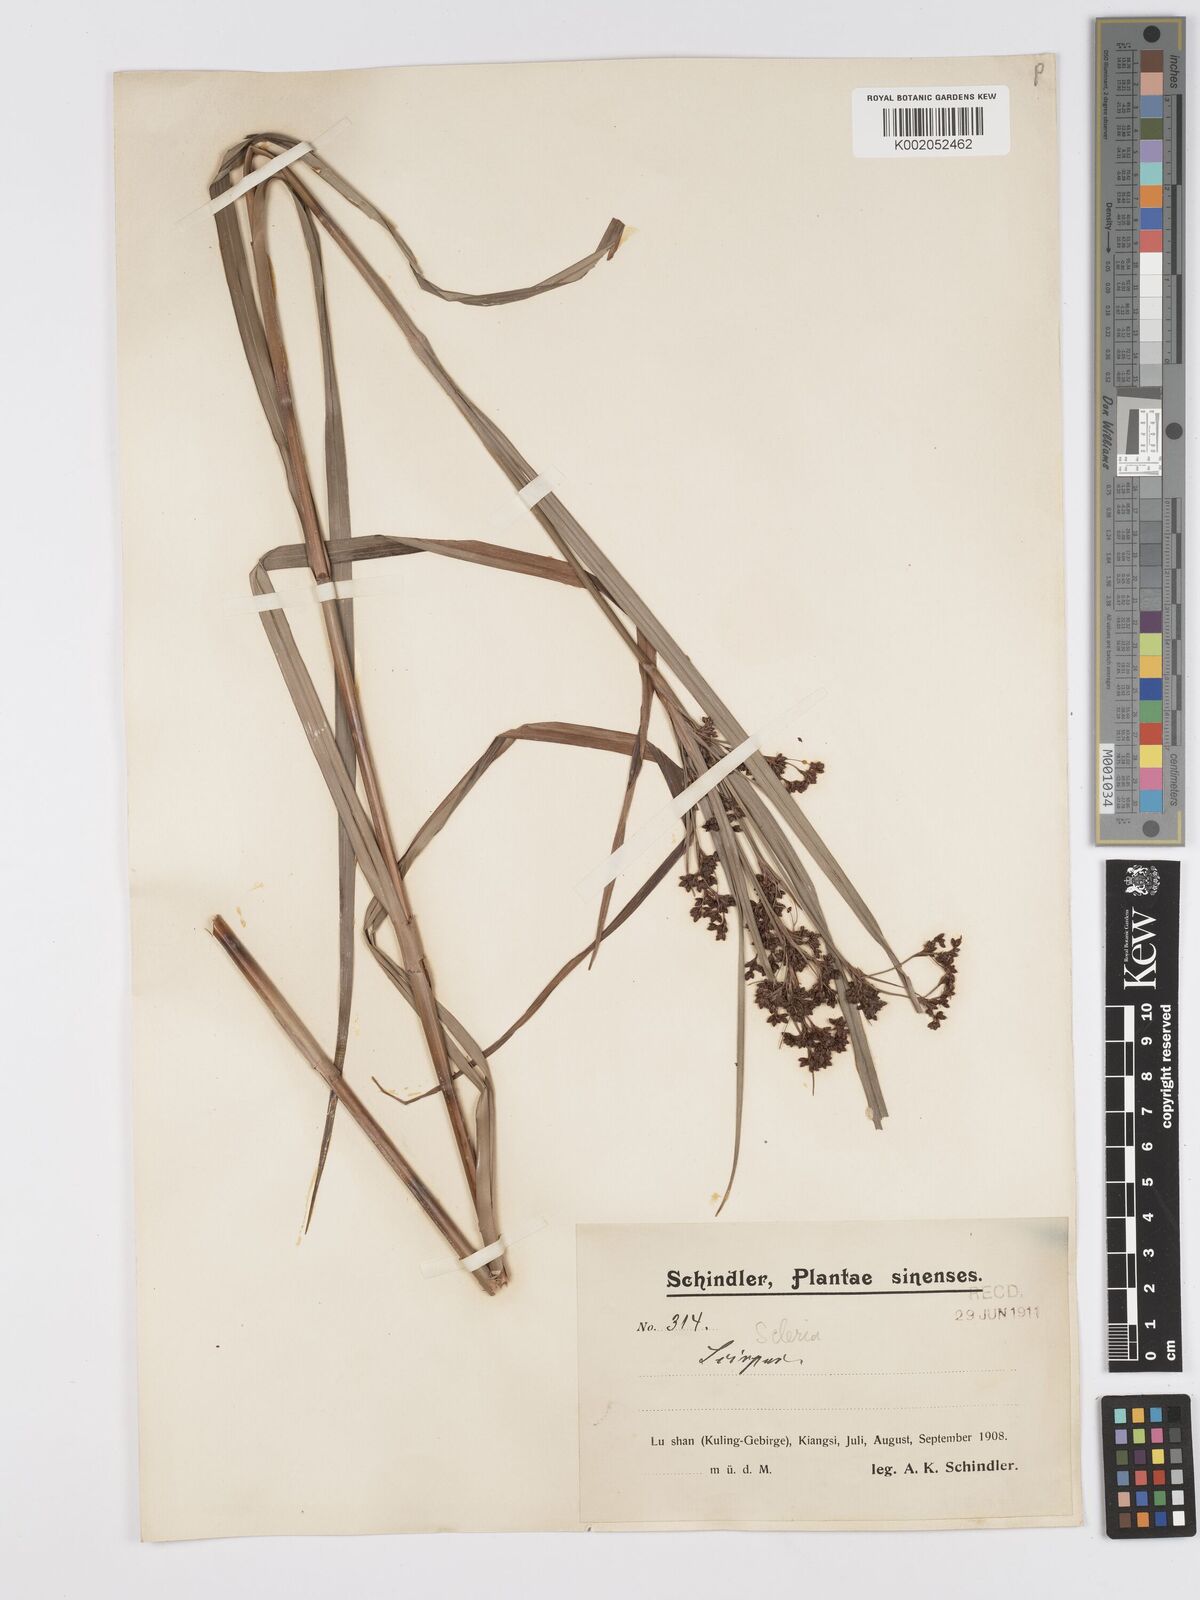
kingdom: Plantae
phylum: Tracheophyta
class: Liliopsida
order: Poales
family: Cyperaceae
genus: Scirpus
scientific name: Scirpus
